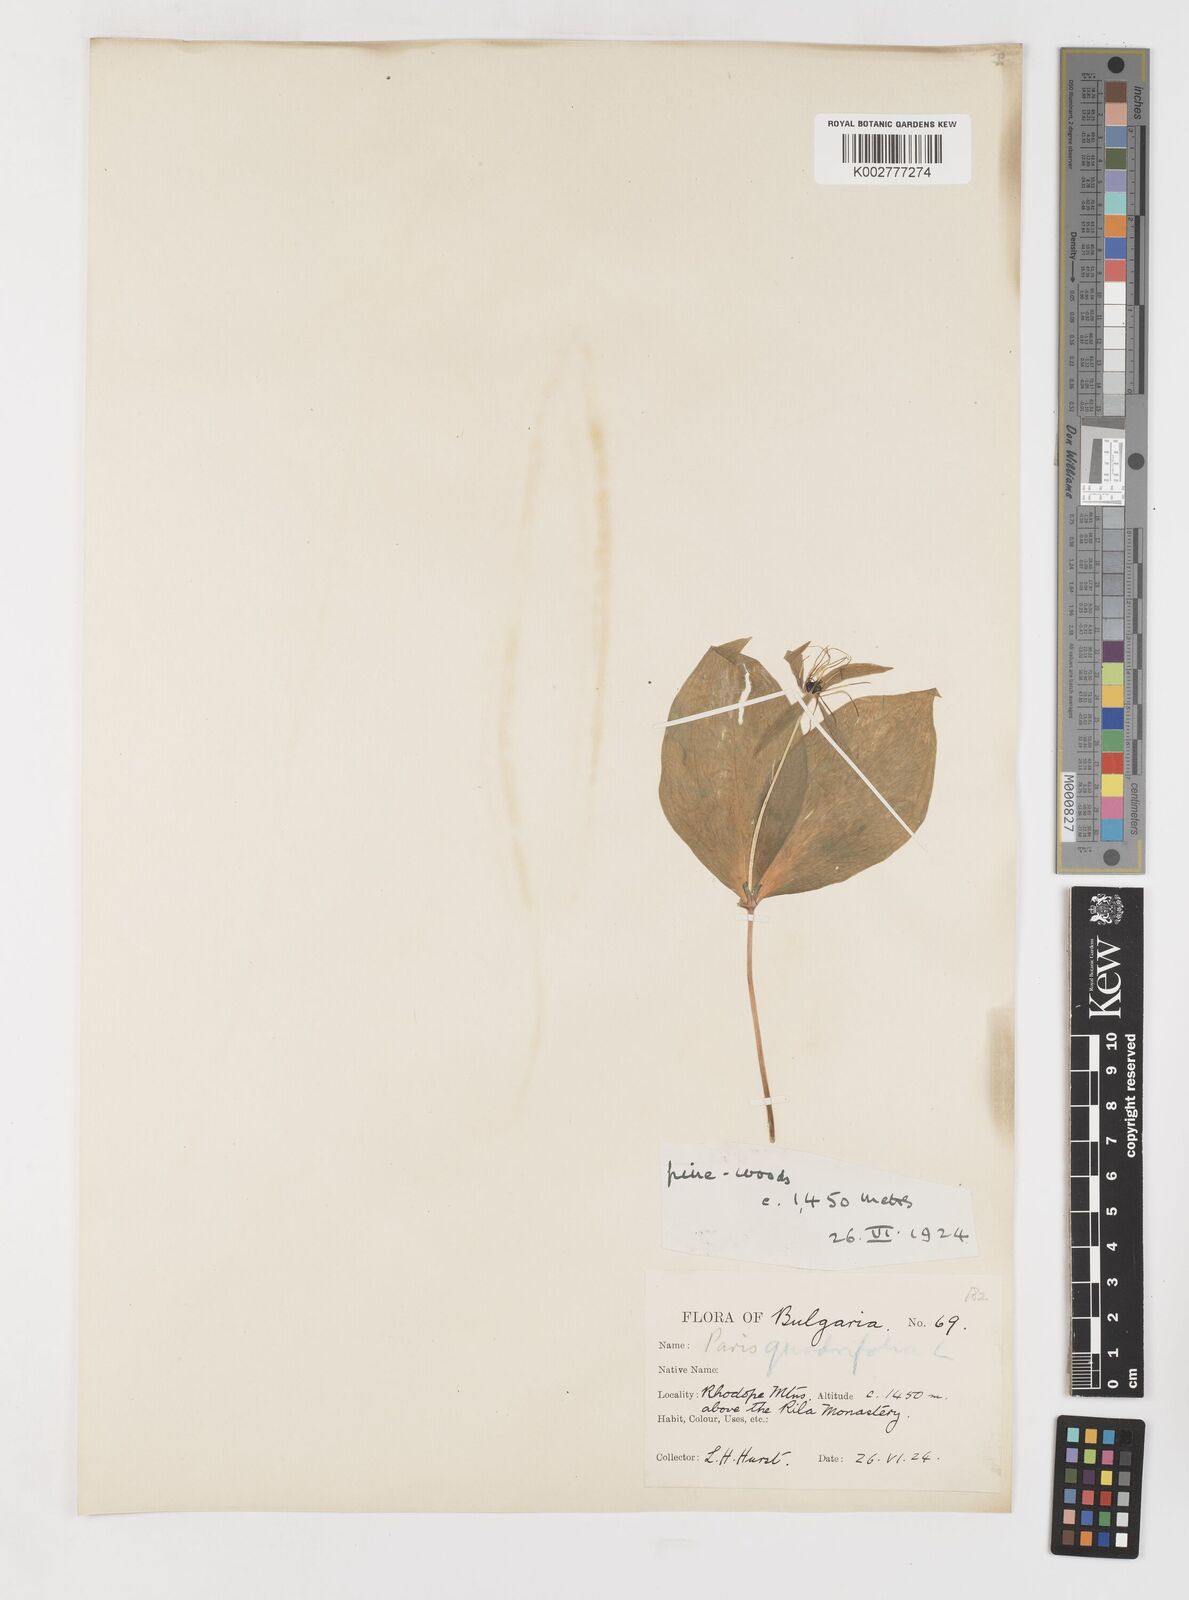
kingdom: Plantae
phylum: Tracheophyta
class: Liliopsida
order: Liliales
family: Melanthiaceae
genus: Paris
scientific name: Paris quadrifolia
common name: Herb-paris
